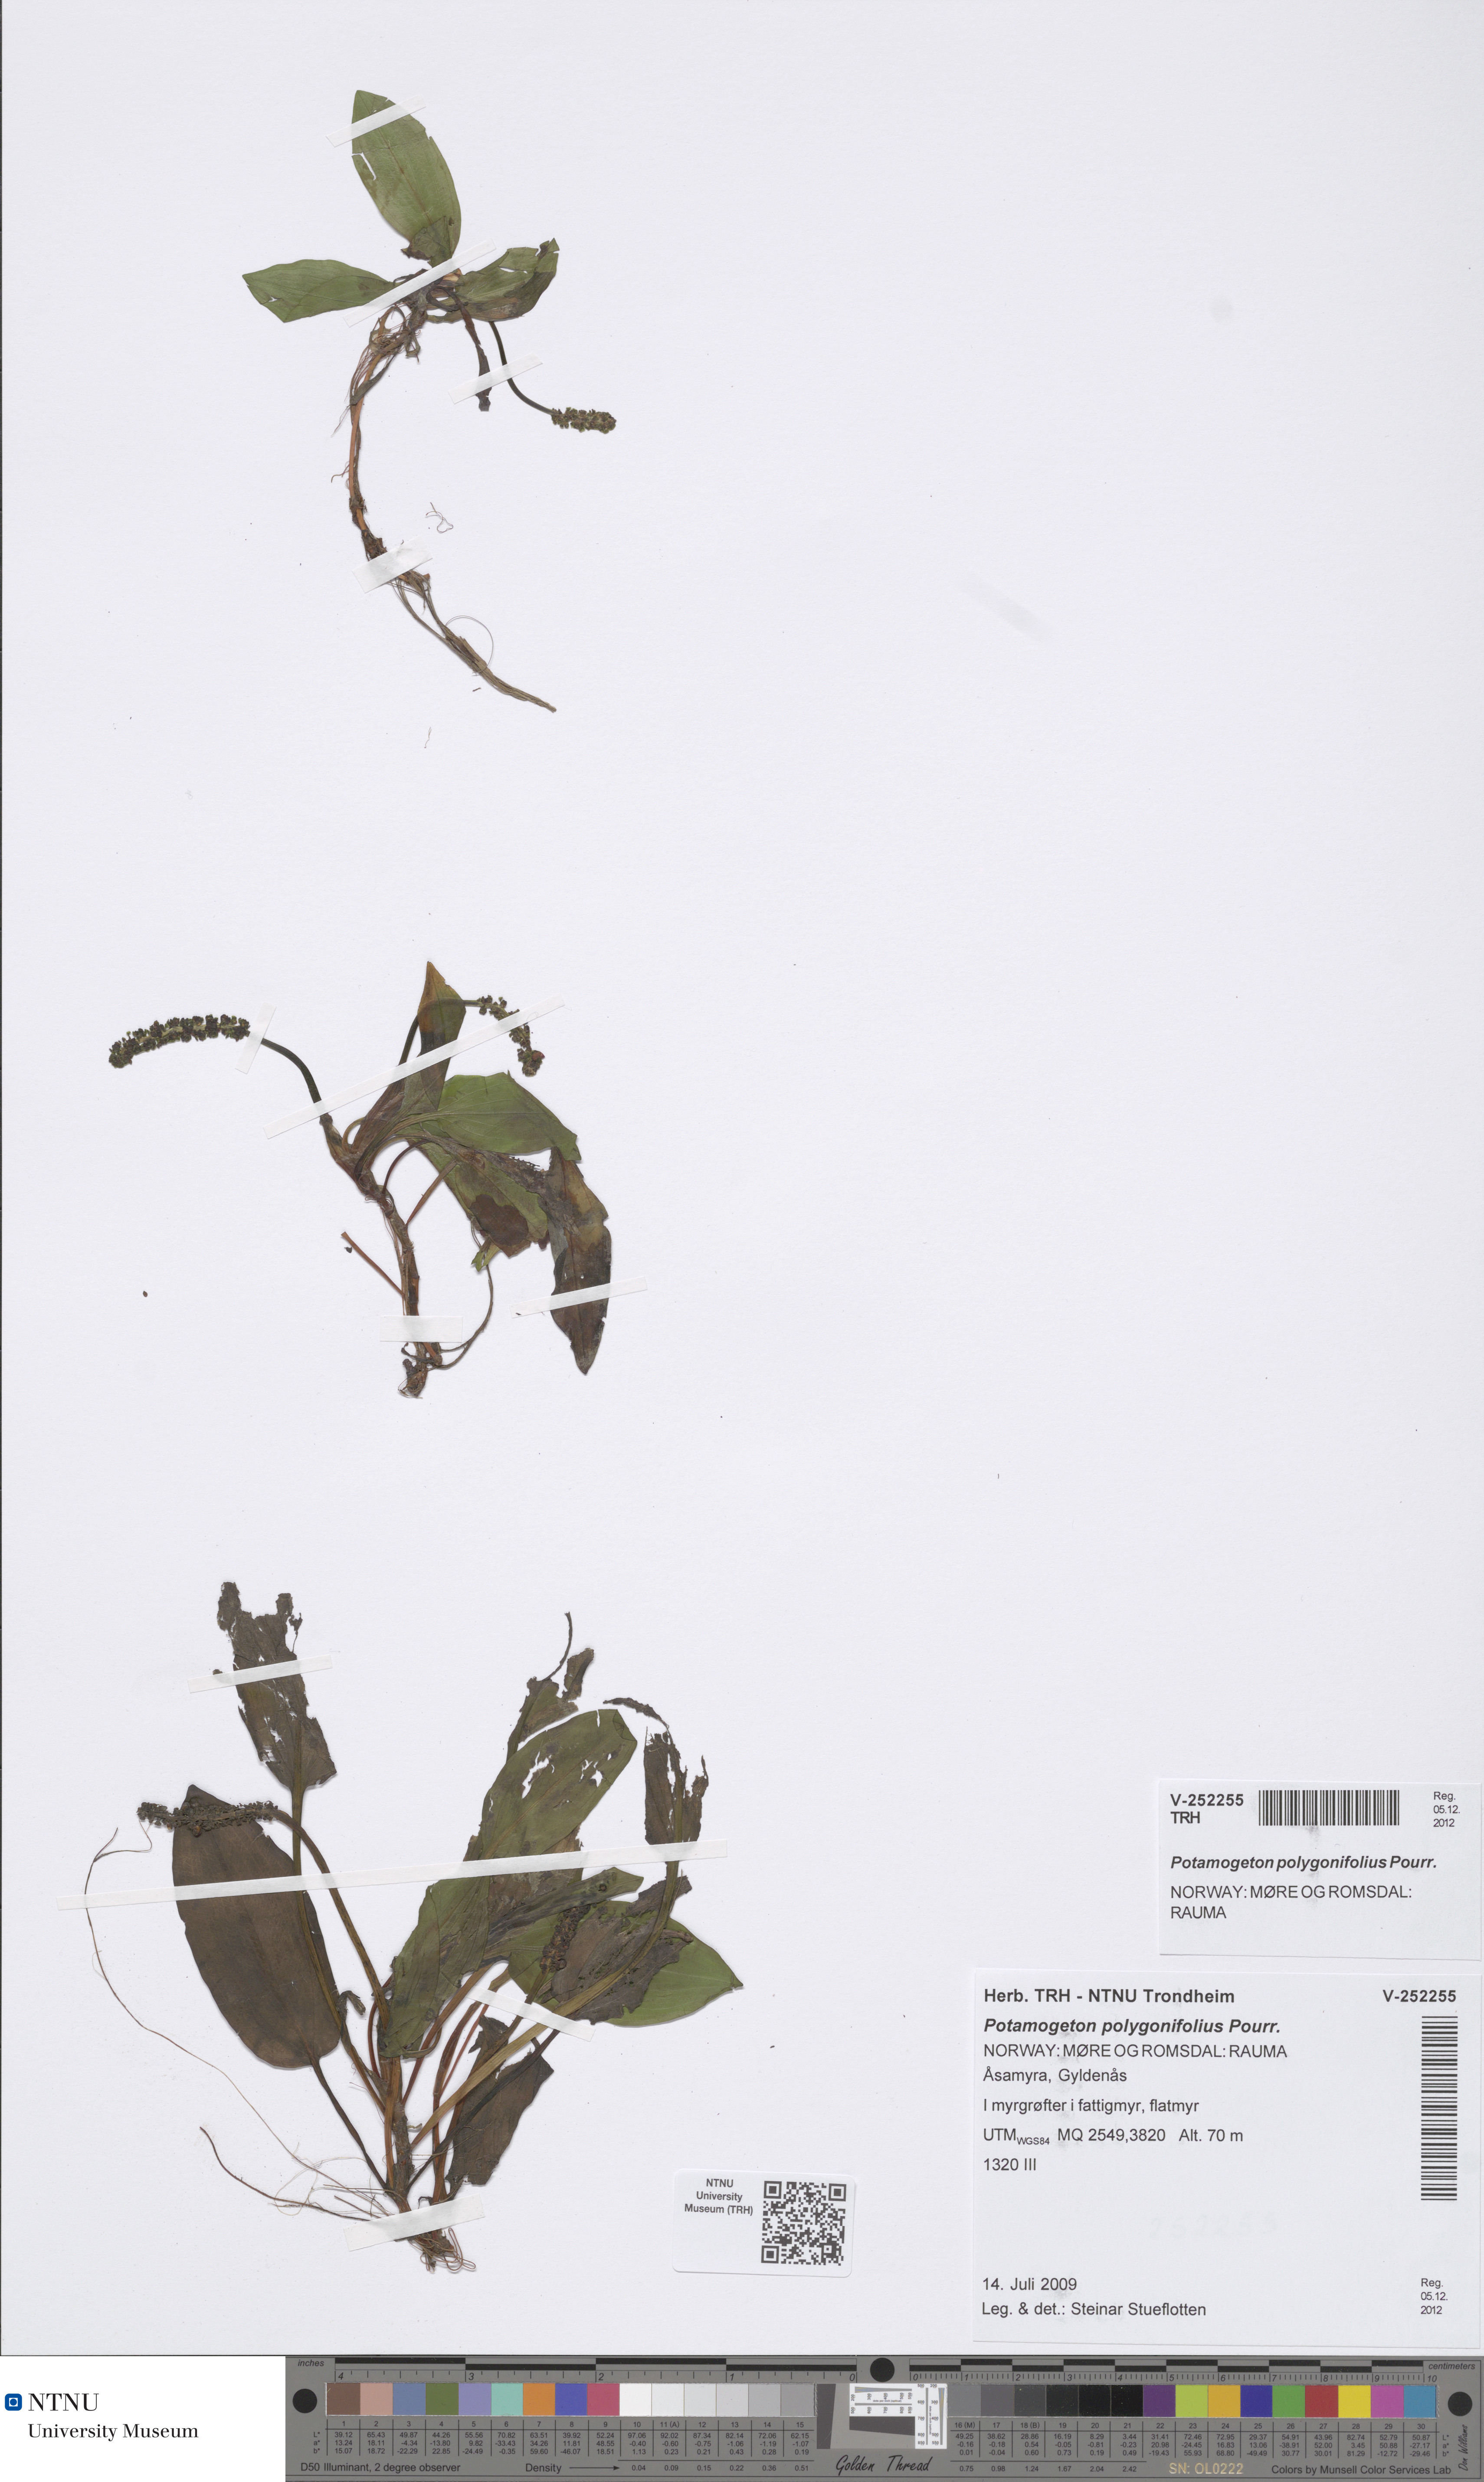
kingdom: Plantae
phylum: Tracheophyta
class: Liliopsida
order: Alismatales
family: Potamogetonaceae
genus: Potamogeton
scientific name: Potamogeton polygonifolius
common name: Bog pondweed
